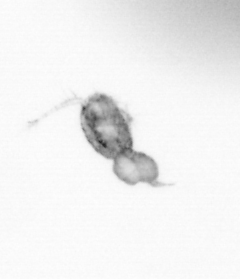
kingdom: Animalia
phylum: Arthropoda
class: Copepoda
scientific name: Copepoda
